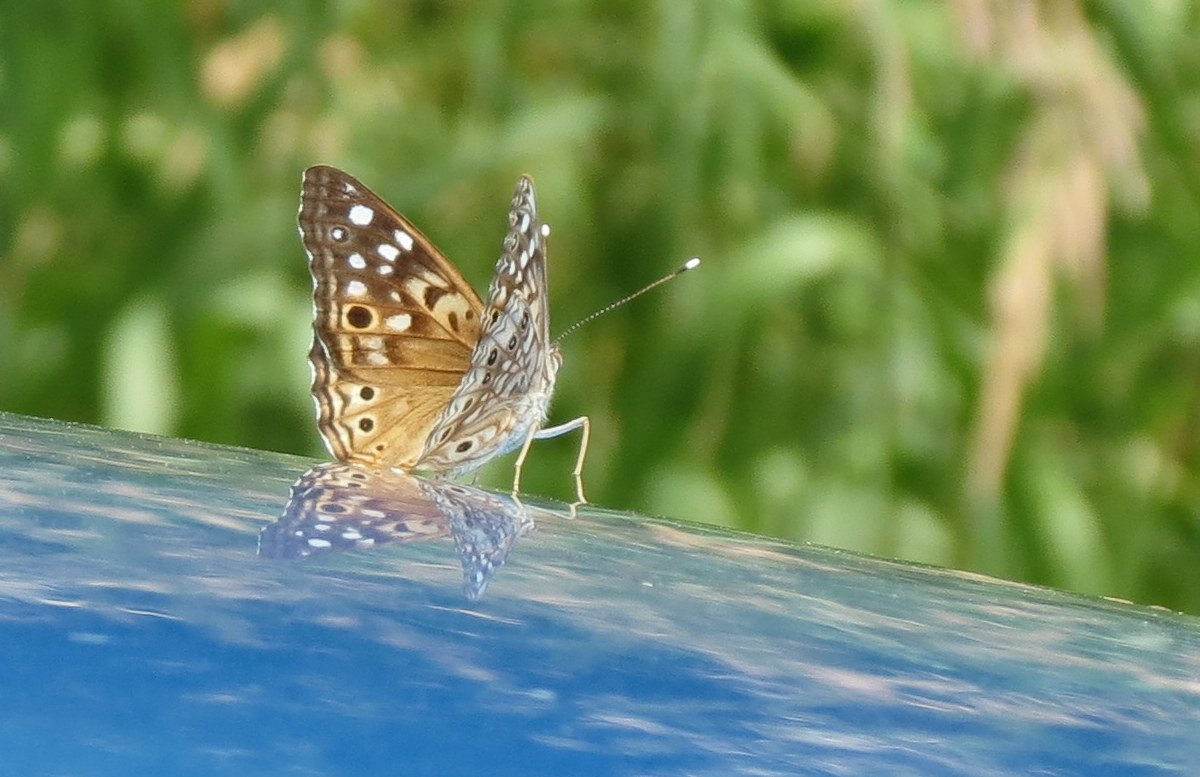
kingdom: Animalia
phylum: Arthropoda
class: Insecta
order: Lepidoptera
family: Nymphalidae
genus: Asterocampa
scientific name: Asterocampa celtis
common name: Hackberry Emperor
